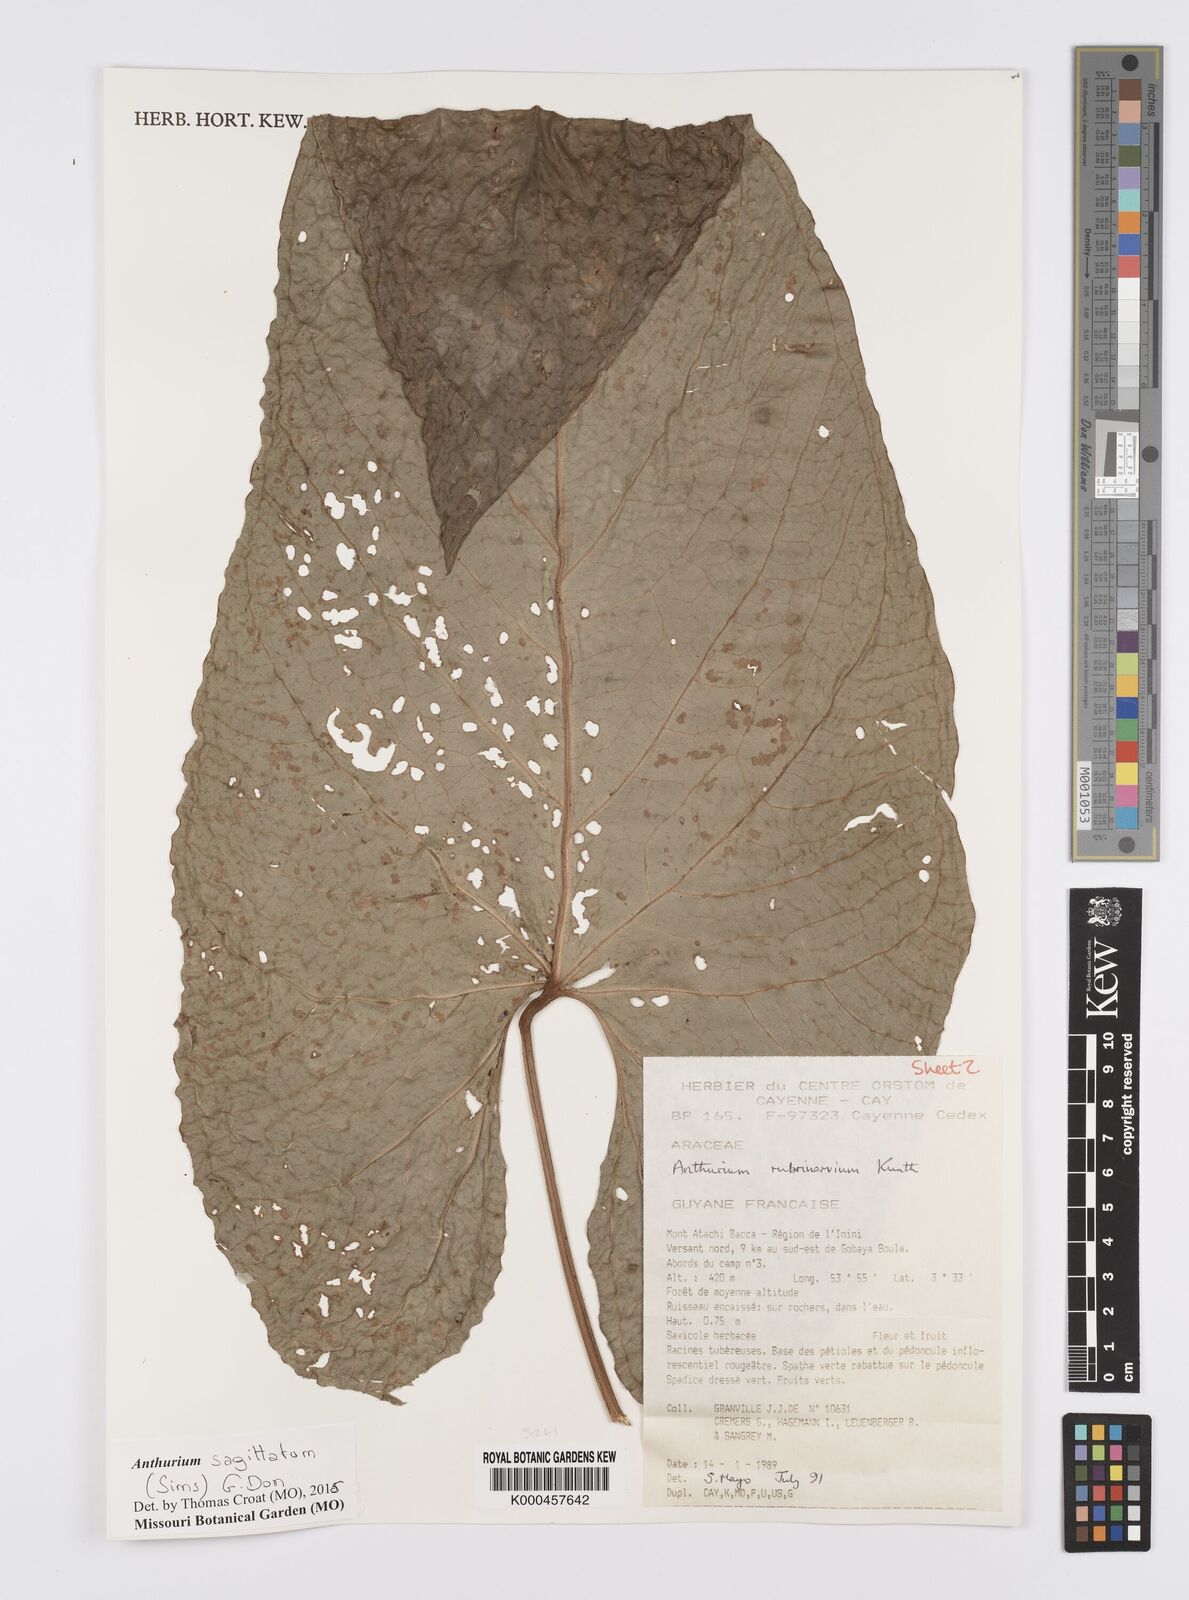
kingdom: Plantae
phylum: Tracheophyta
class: Liliopsida
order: Alismatales
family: Araceae
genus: Anthurium
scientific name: Anthurium sagittatum
